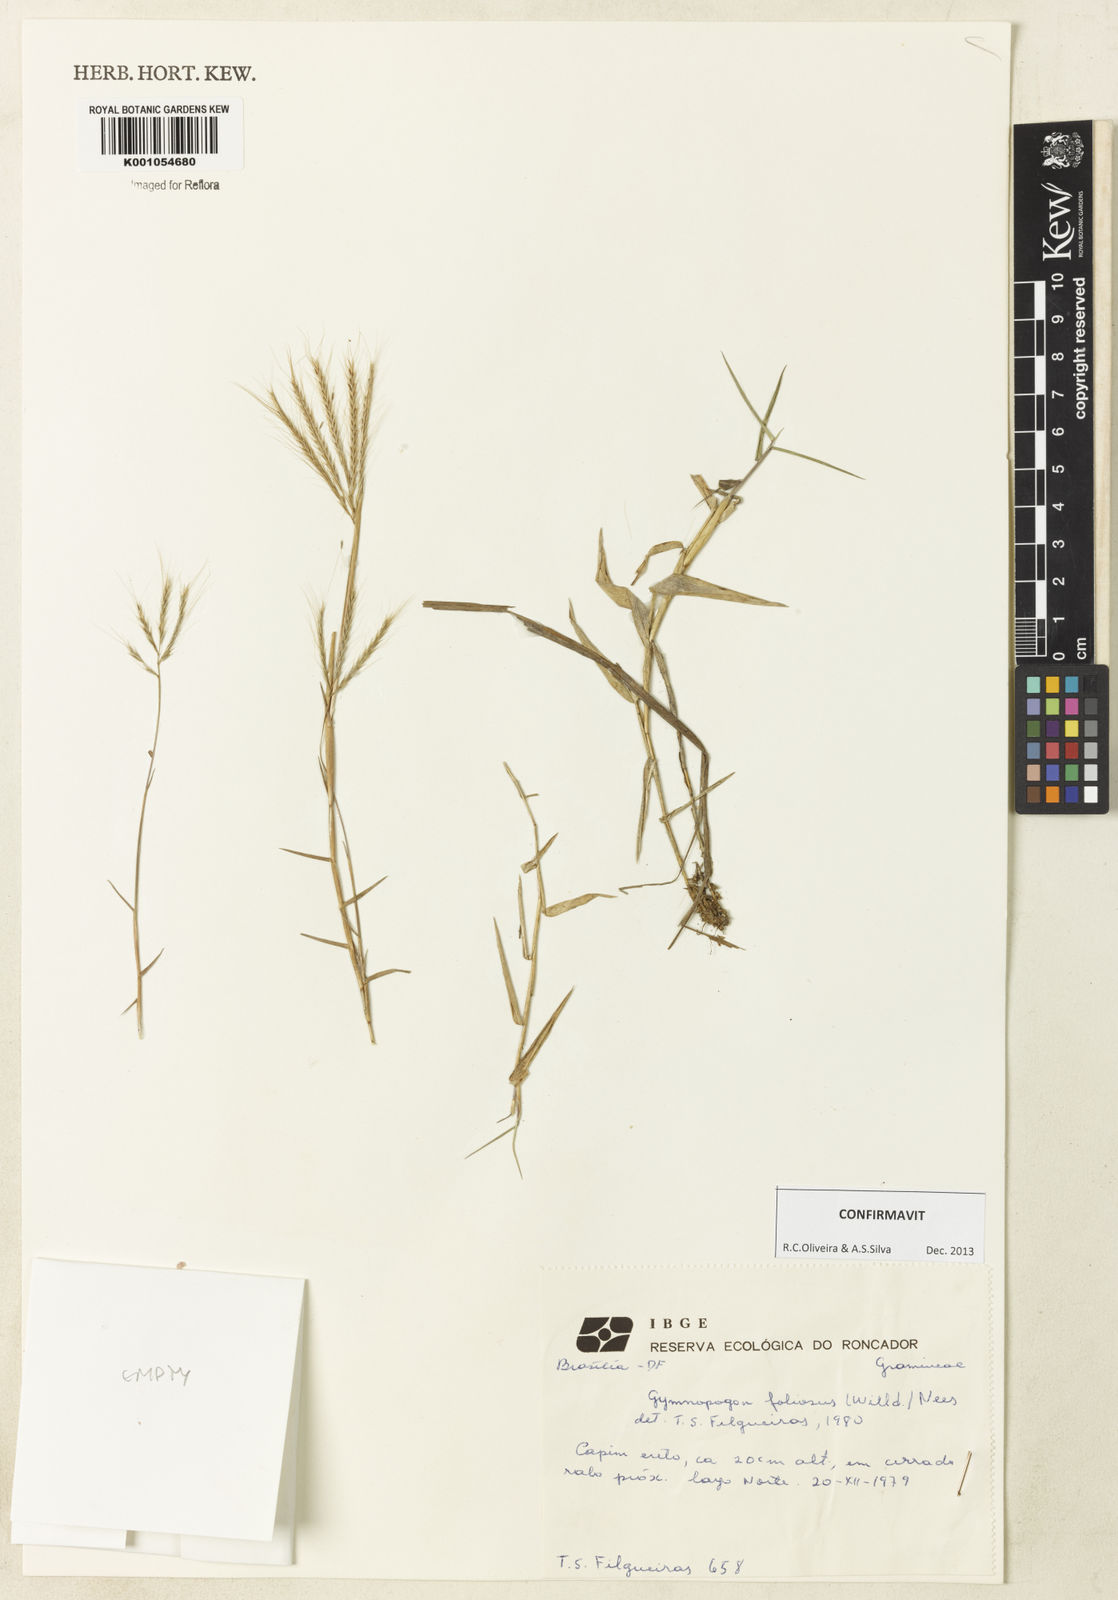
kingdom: Plantae
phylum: Tracheophyta
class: Liliopsida
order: Poales
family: Poaceae
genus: Gymnopogon
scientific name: Gymnopogon foliosus
